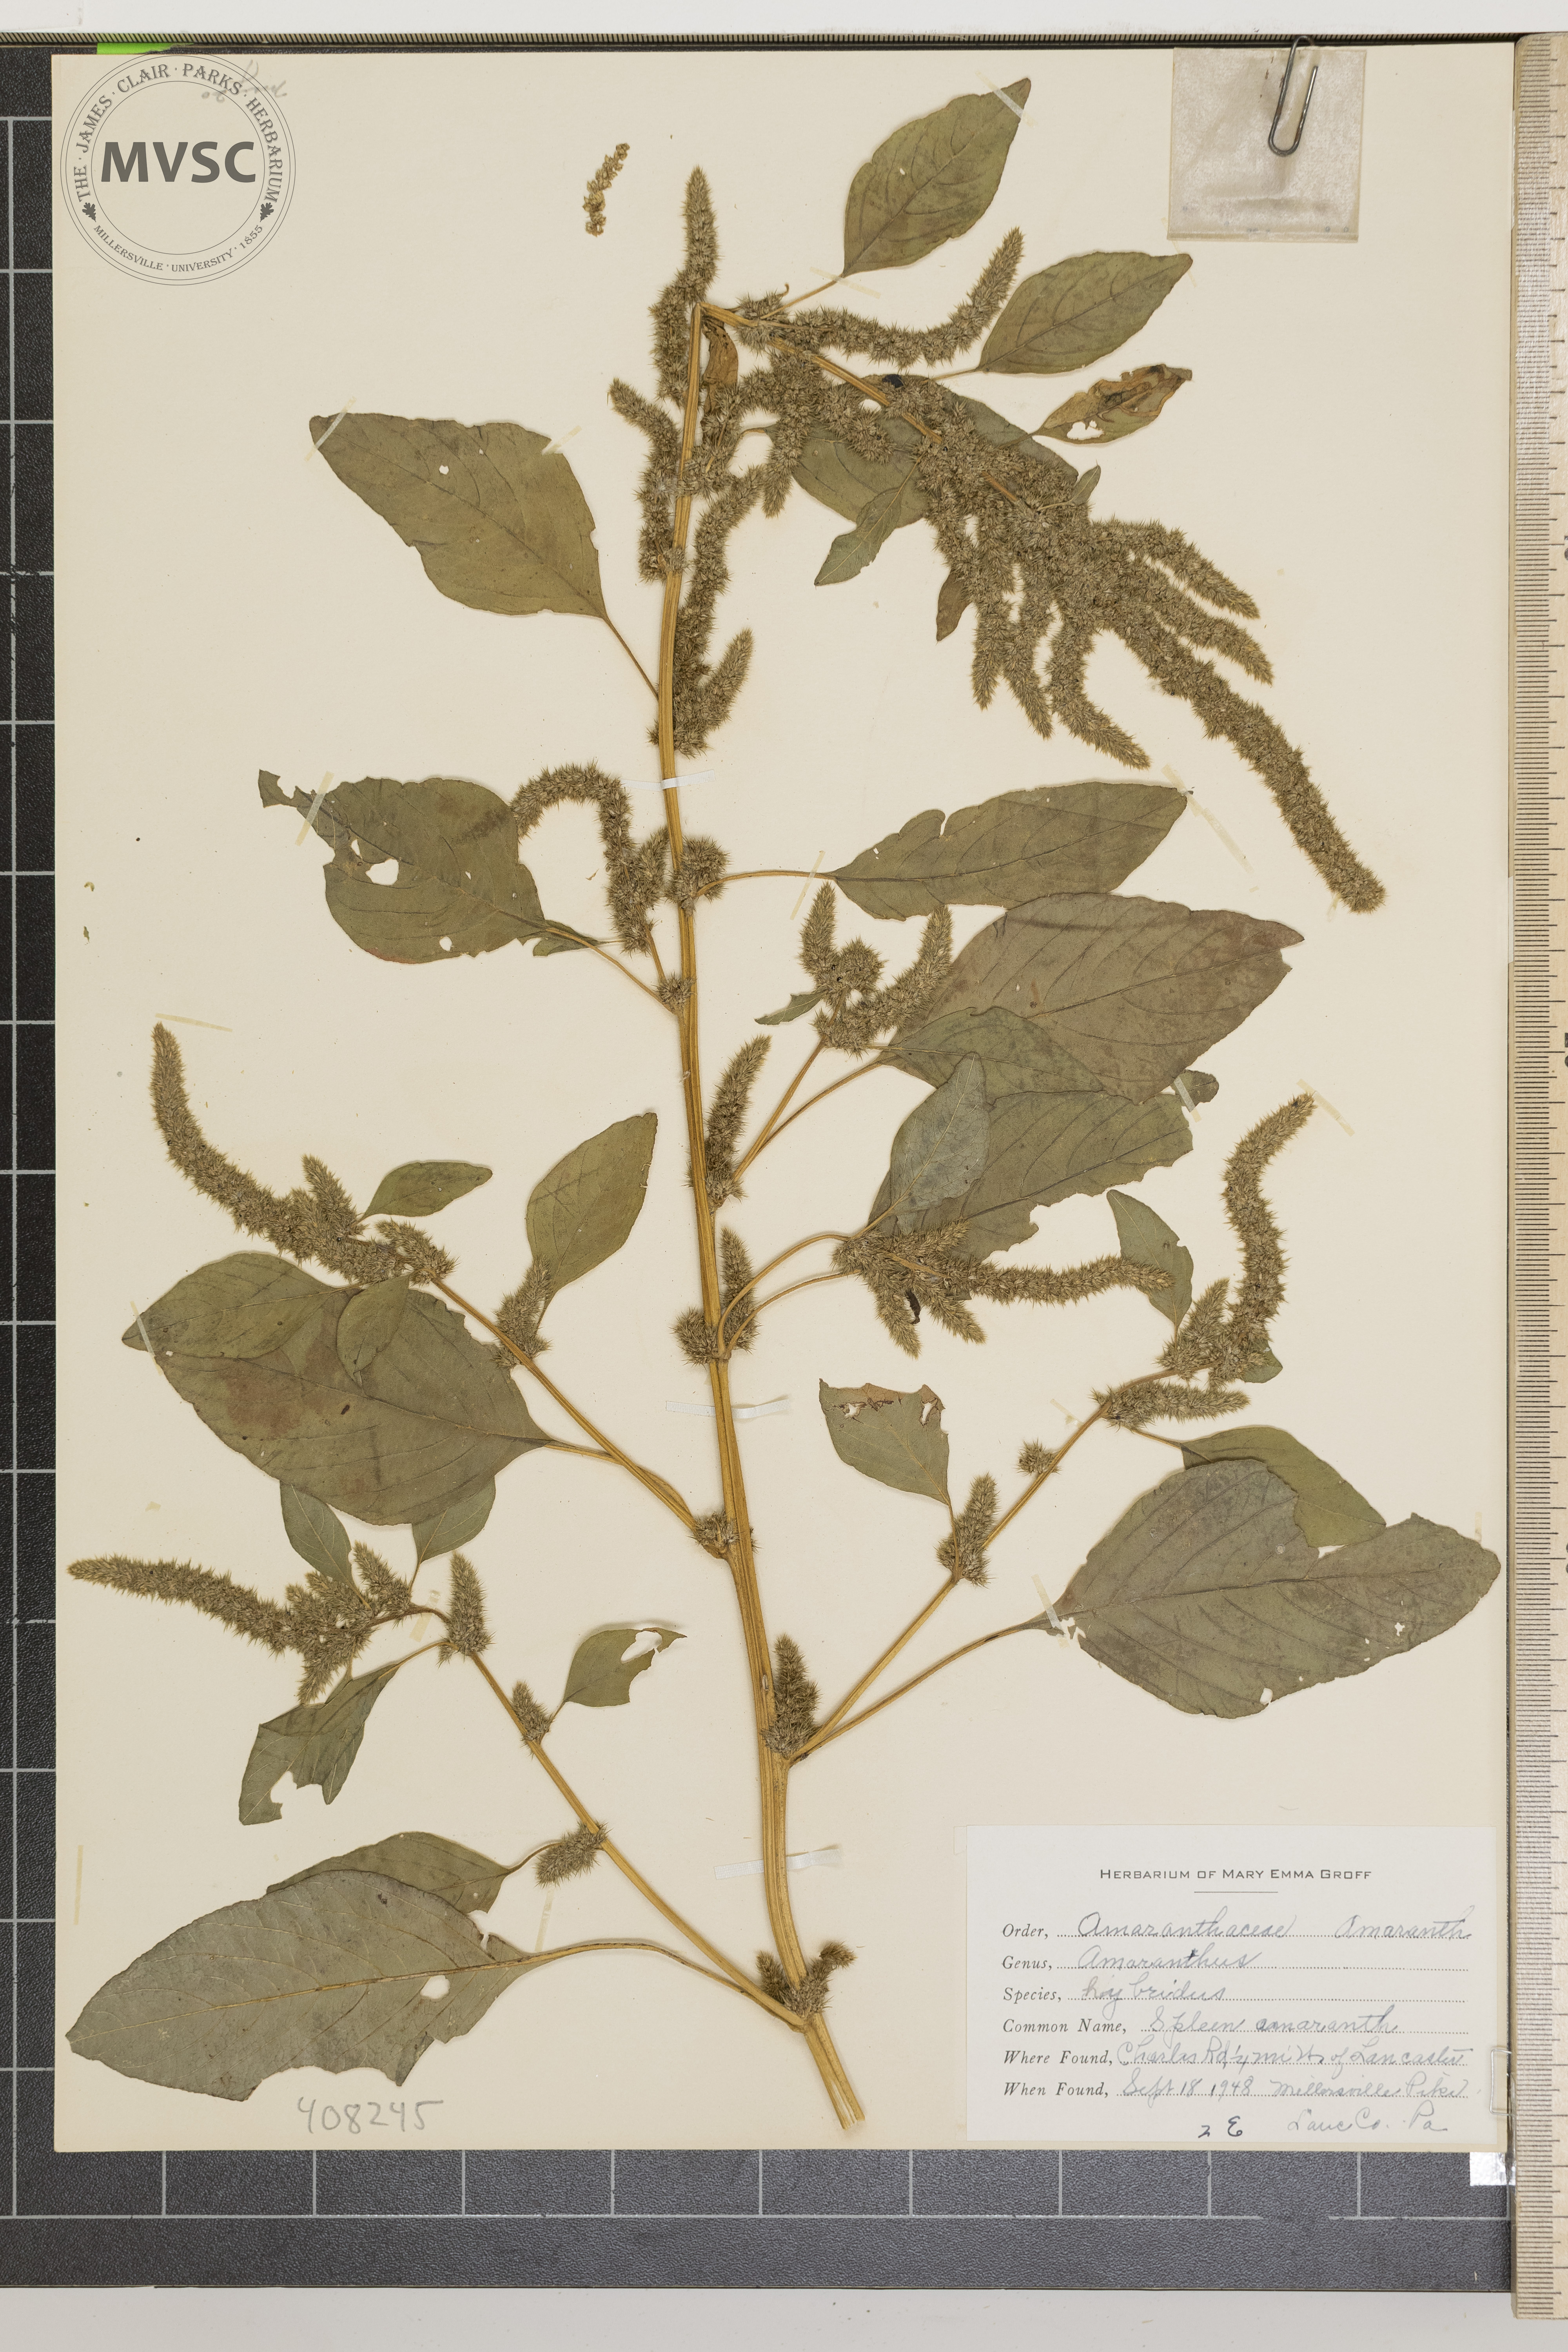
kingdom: Plantae
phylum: Tracheophyta
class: Magnoliopsida
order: Caryophyllales
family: Amaranthaceae
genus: Amaranthus
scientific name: Amaranthus hybridus
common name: Spleen amaranth
